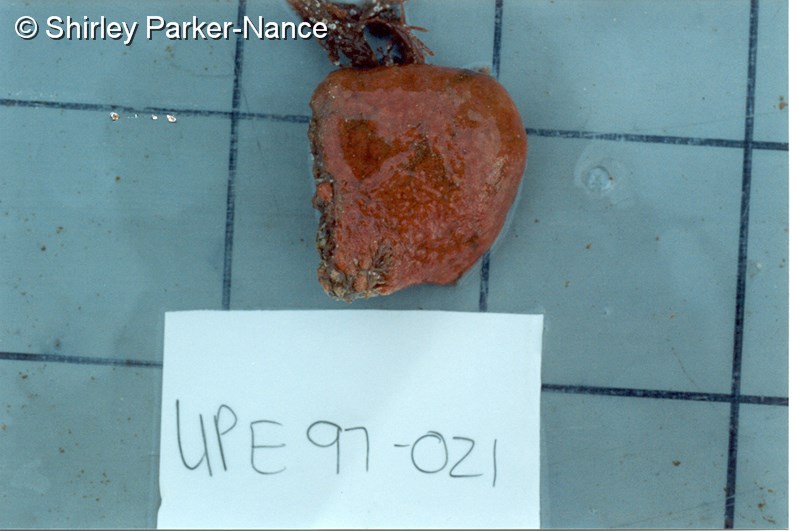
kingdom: Animalia
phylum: Chordata
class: Ascidiacea
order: Aplousobranchia
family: Polyclinidae
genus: Aplidium
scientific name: Aplidium
